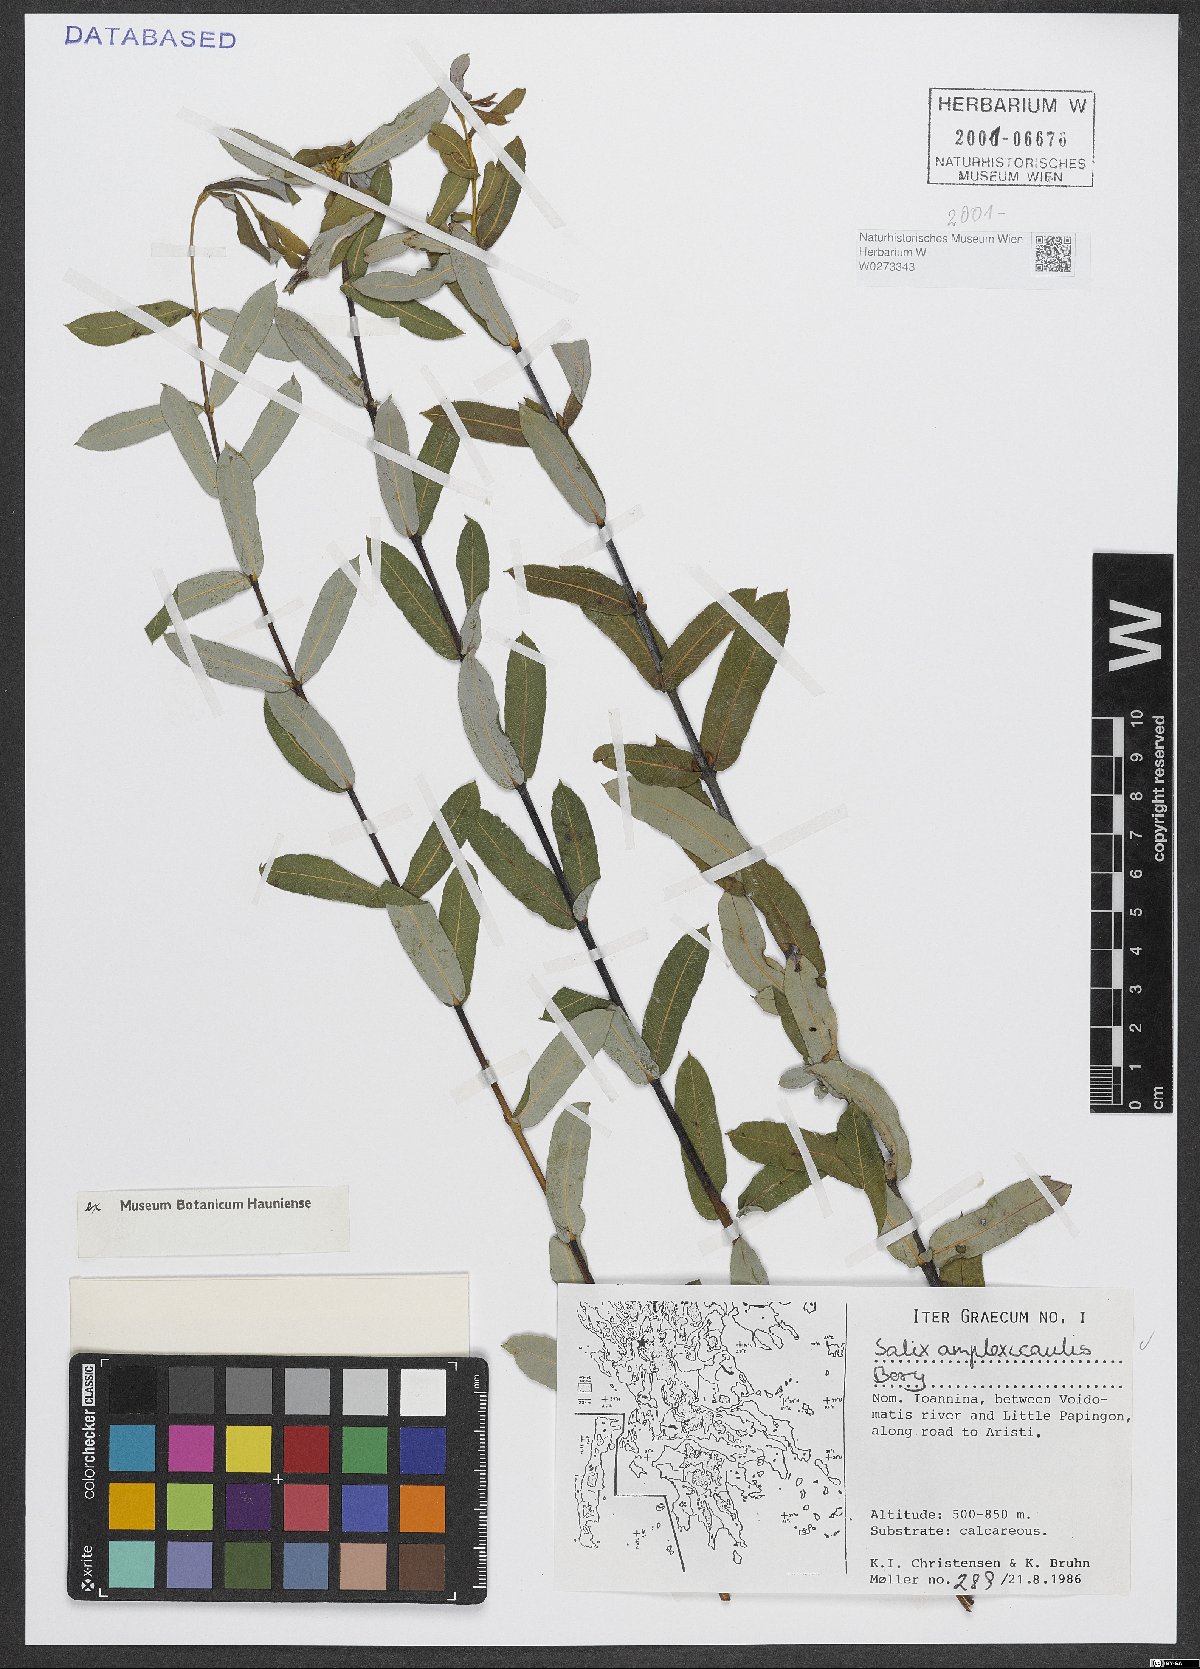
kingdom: Plantae
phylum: Tracheophyta
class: Magnoliopsida
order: Malpighiales
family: Salicaceae
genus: Salix
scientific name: Salix amplexicaulis
